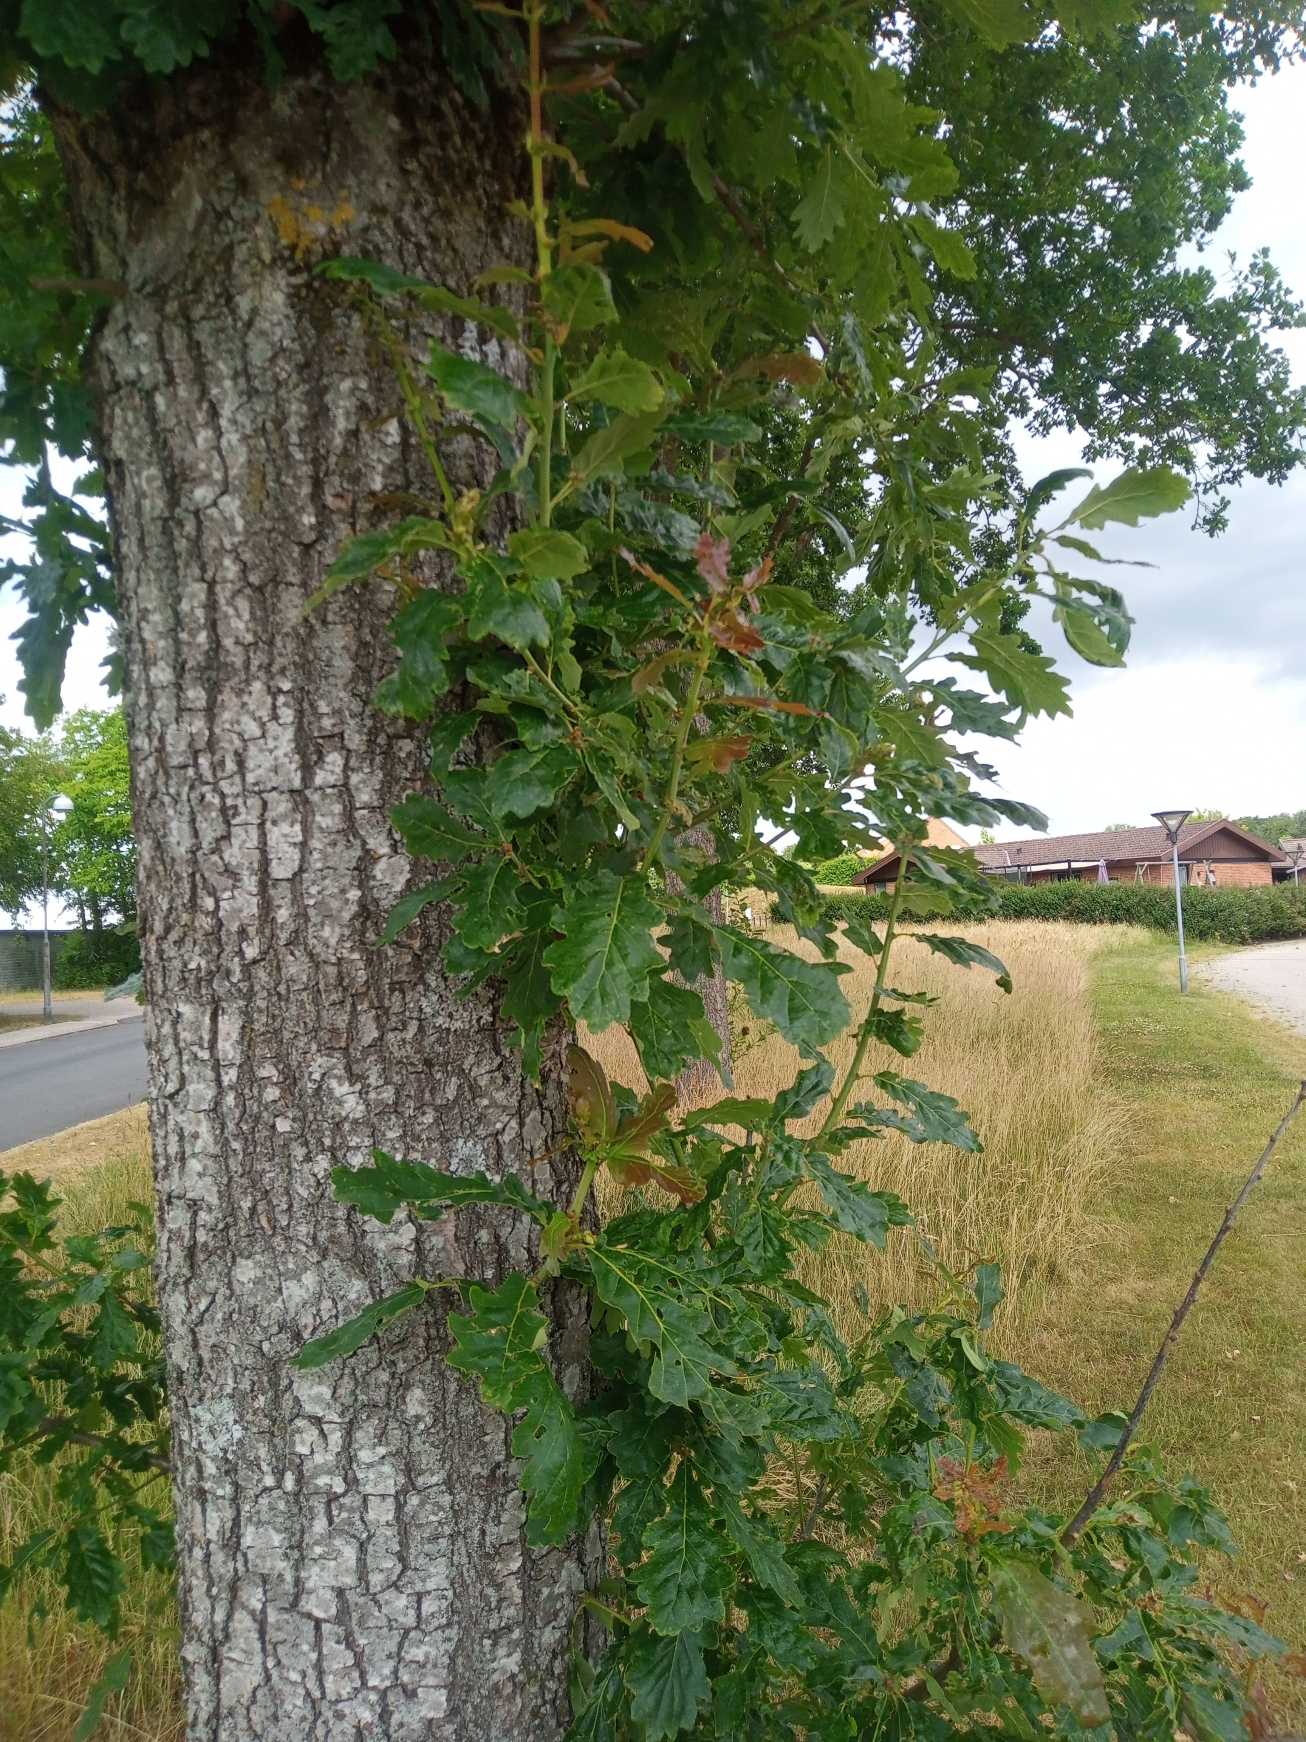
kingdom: Plantae
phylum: Tracheophyta
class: Magnoliopsida
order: Fagales
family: Fagaceae
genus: Quercus
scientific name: Quercus petraea
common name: Vinter-eg
